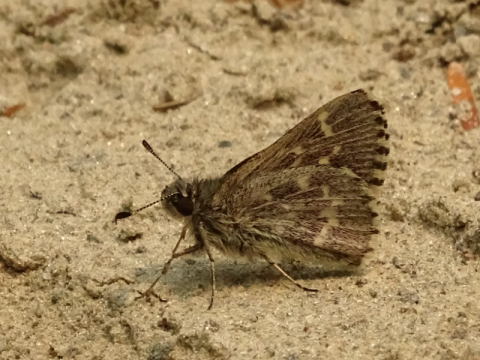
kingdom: Animalia
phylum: Arthropoda
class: Insecta
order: Lepidoptera
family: Hesperiidae
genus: Mastor
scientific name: Mastor hegon
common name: Pepper and Salt Skipper
